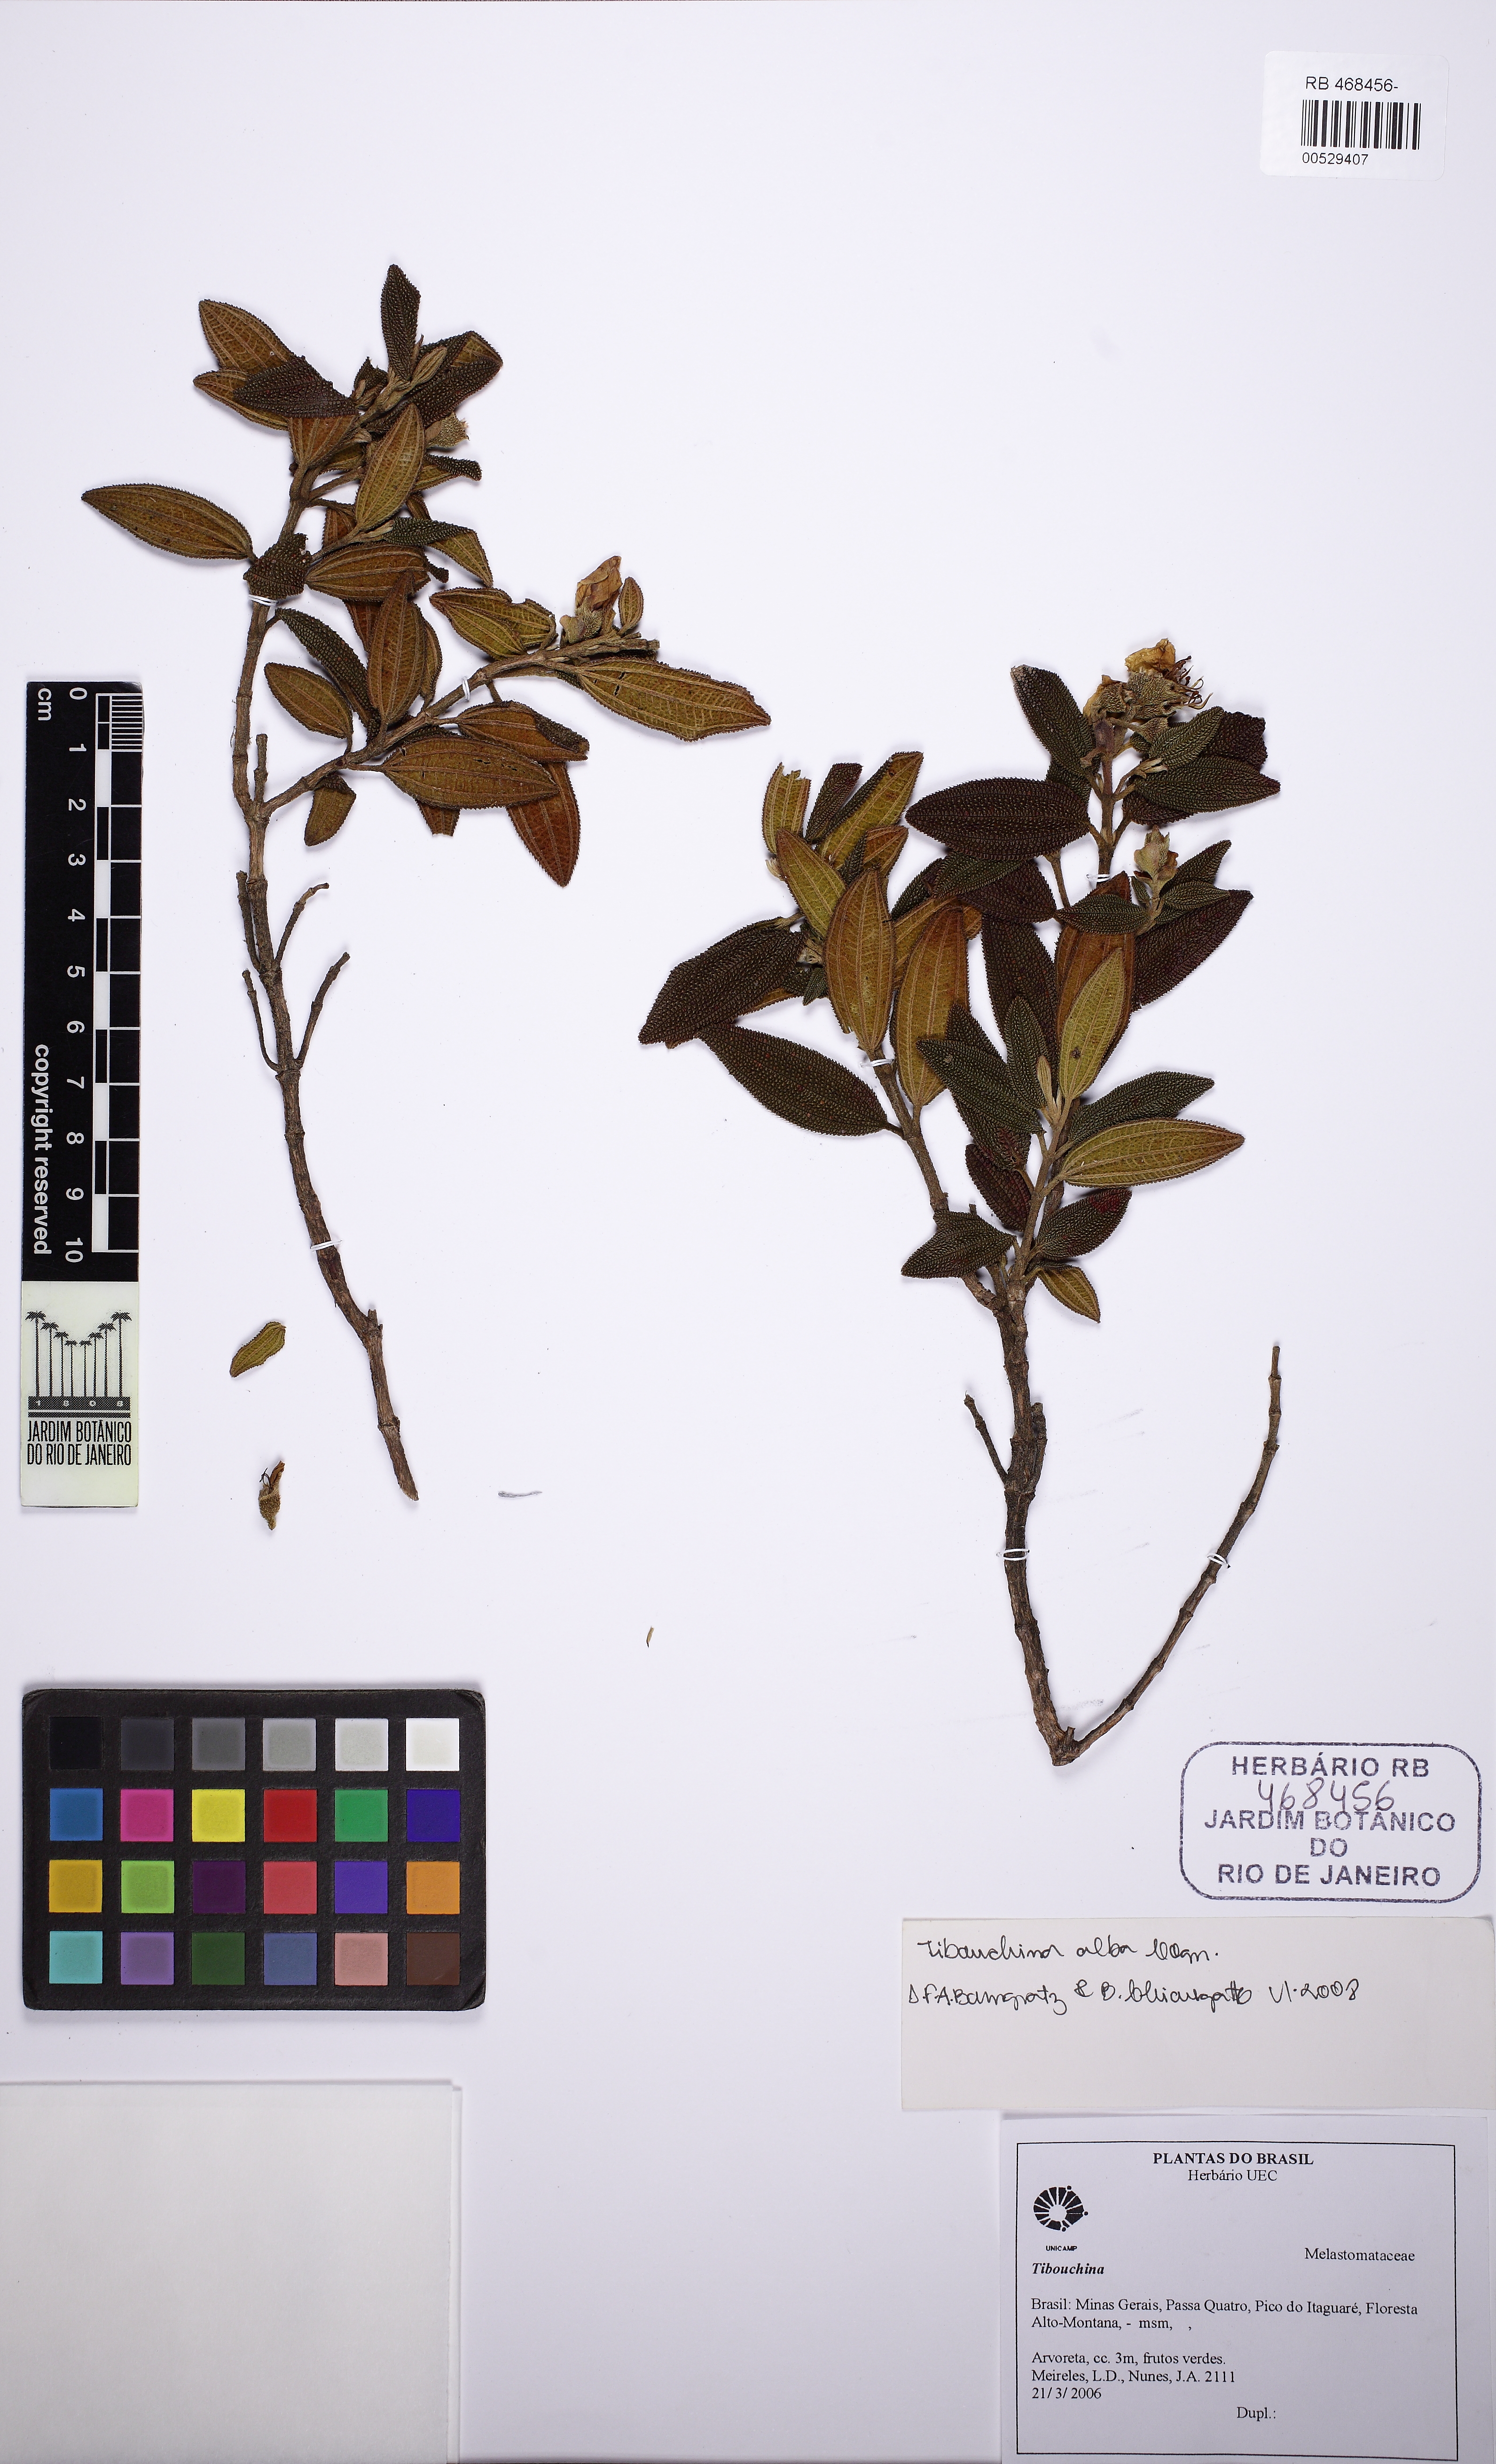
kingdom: Plantae
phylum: Tracheophyta
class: Magnoliopsida
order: Myrtales
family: Melastomataceae
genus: Pleroma
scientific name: Pleroma echinatum
